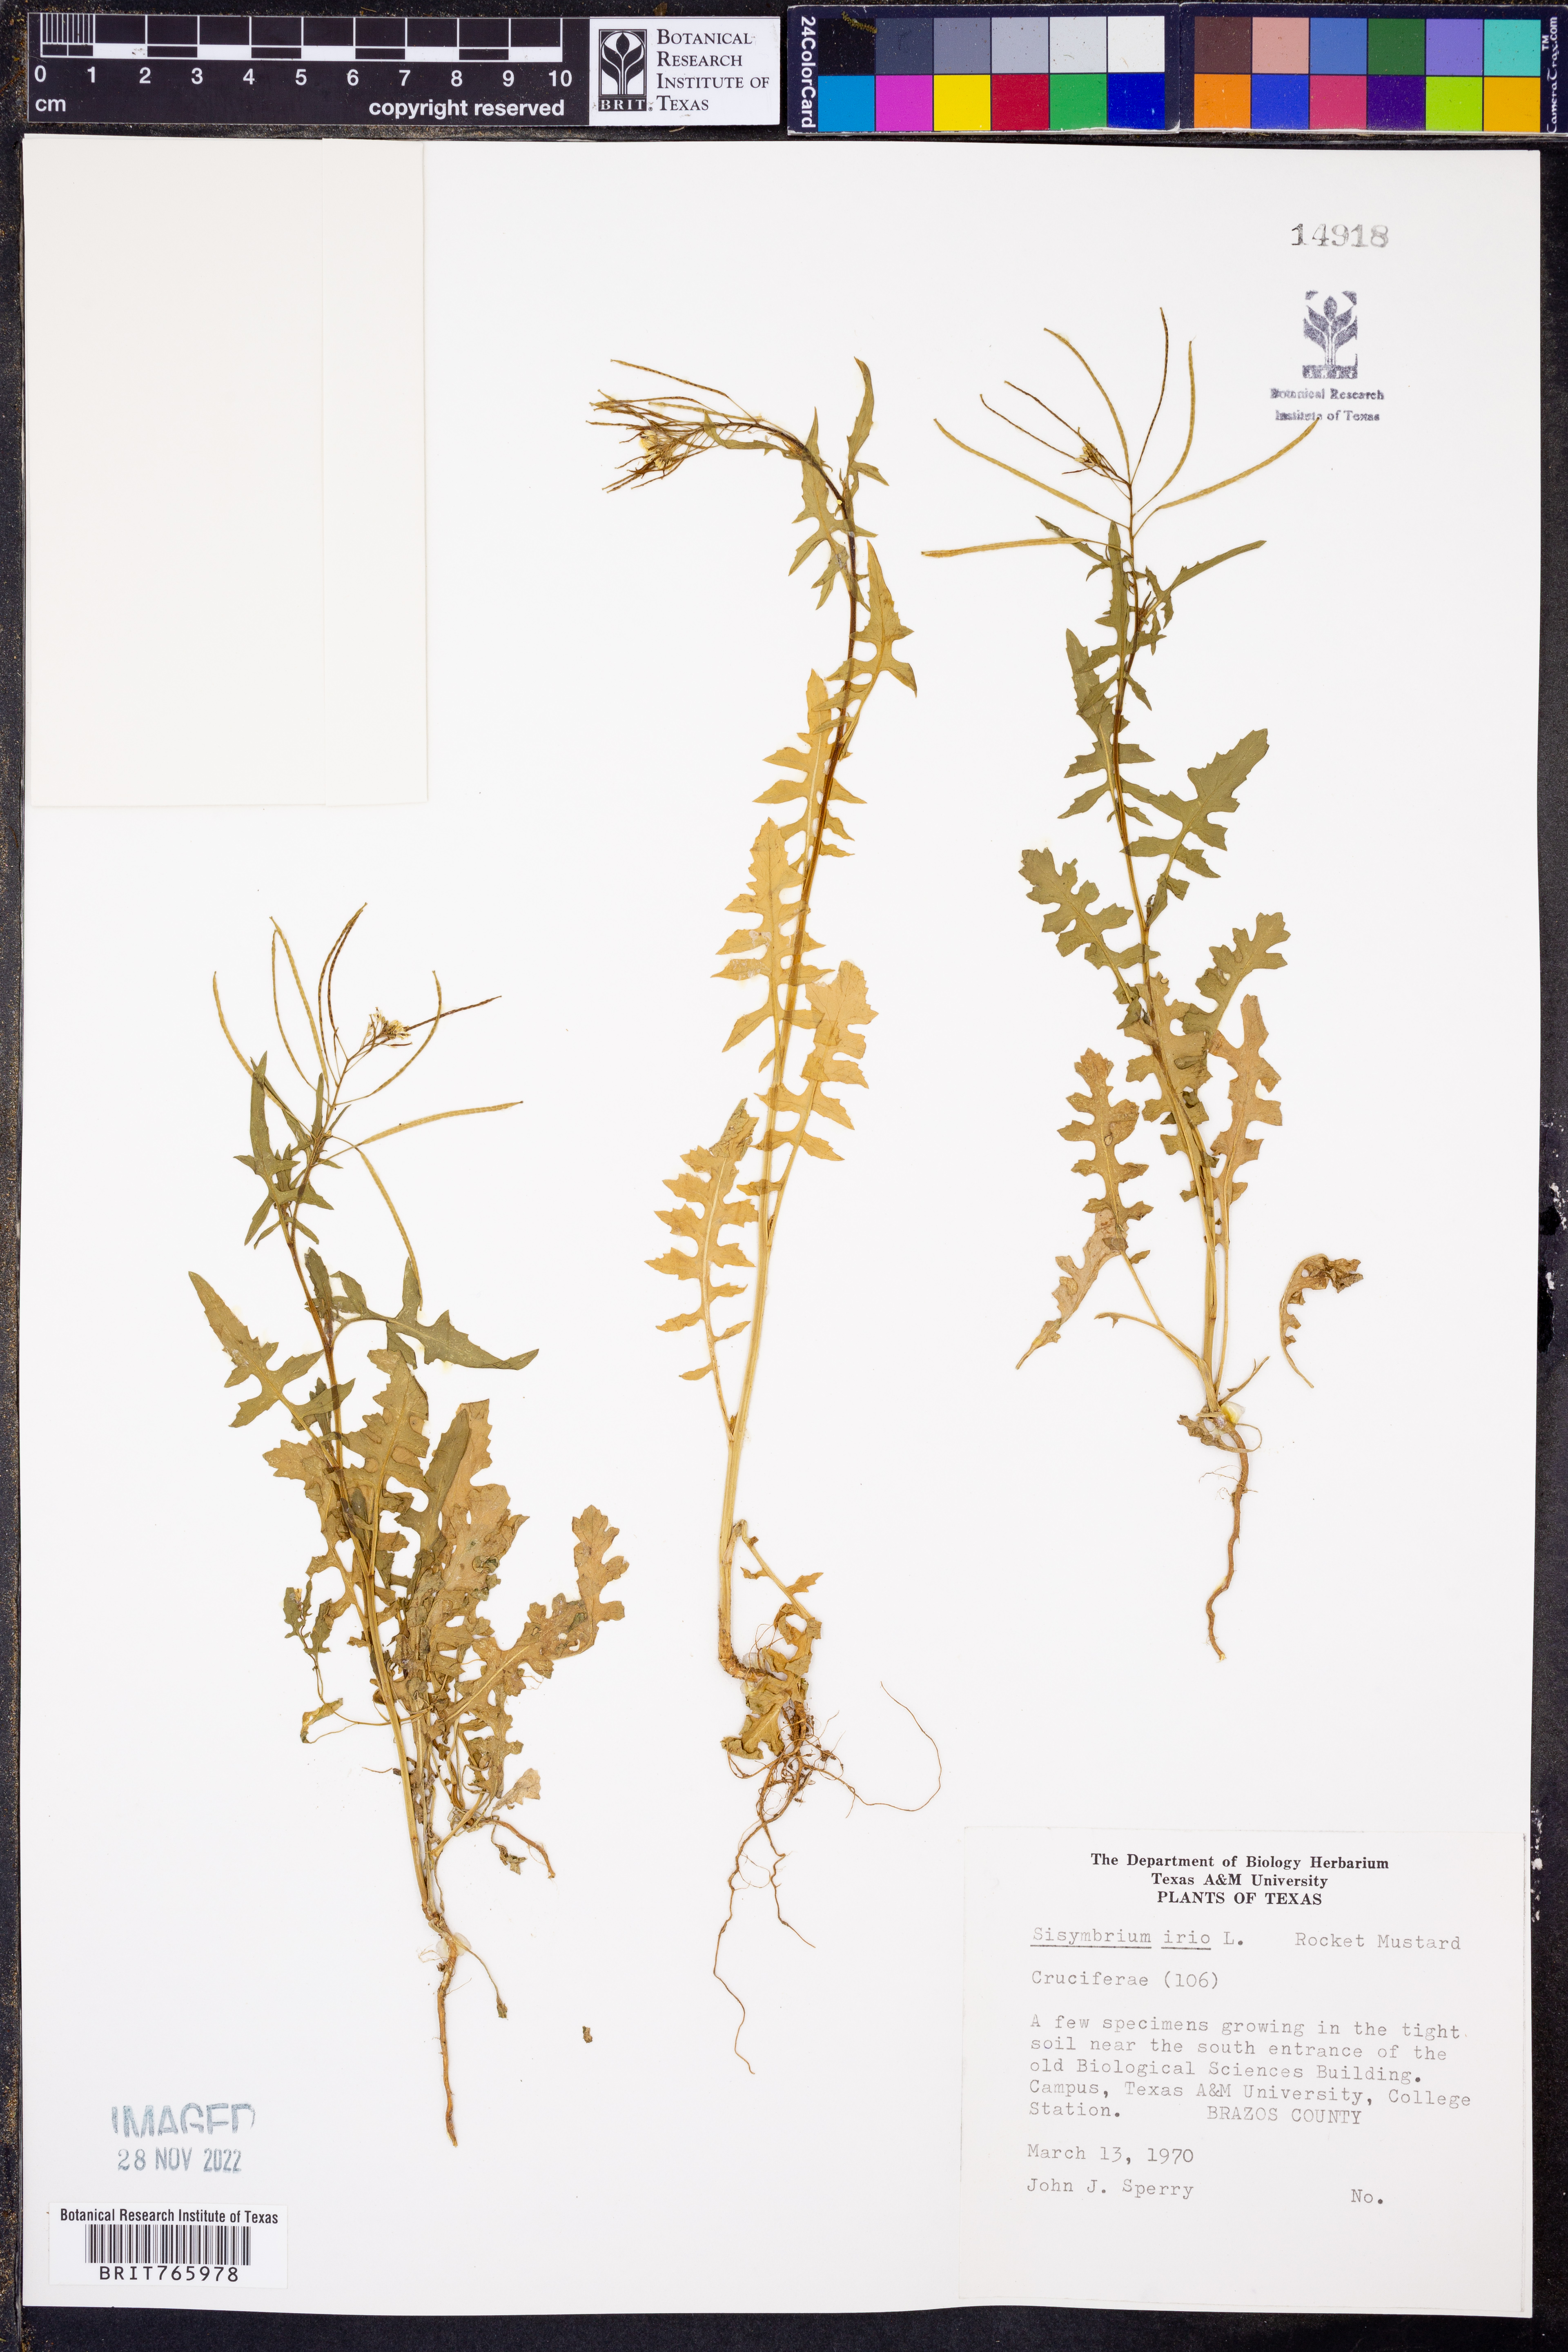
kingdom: Plantae
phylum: Tracheophyta
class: Magnoliopsida
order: Brassicales
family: Brassicaceae
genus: Sisymbrium
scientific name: Sisymbrium irio
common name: London rocket
